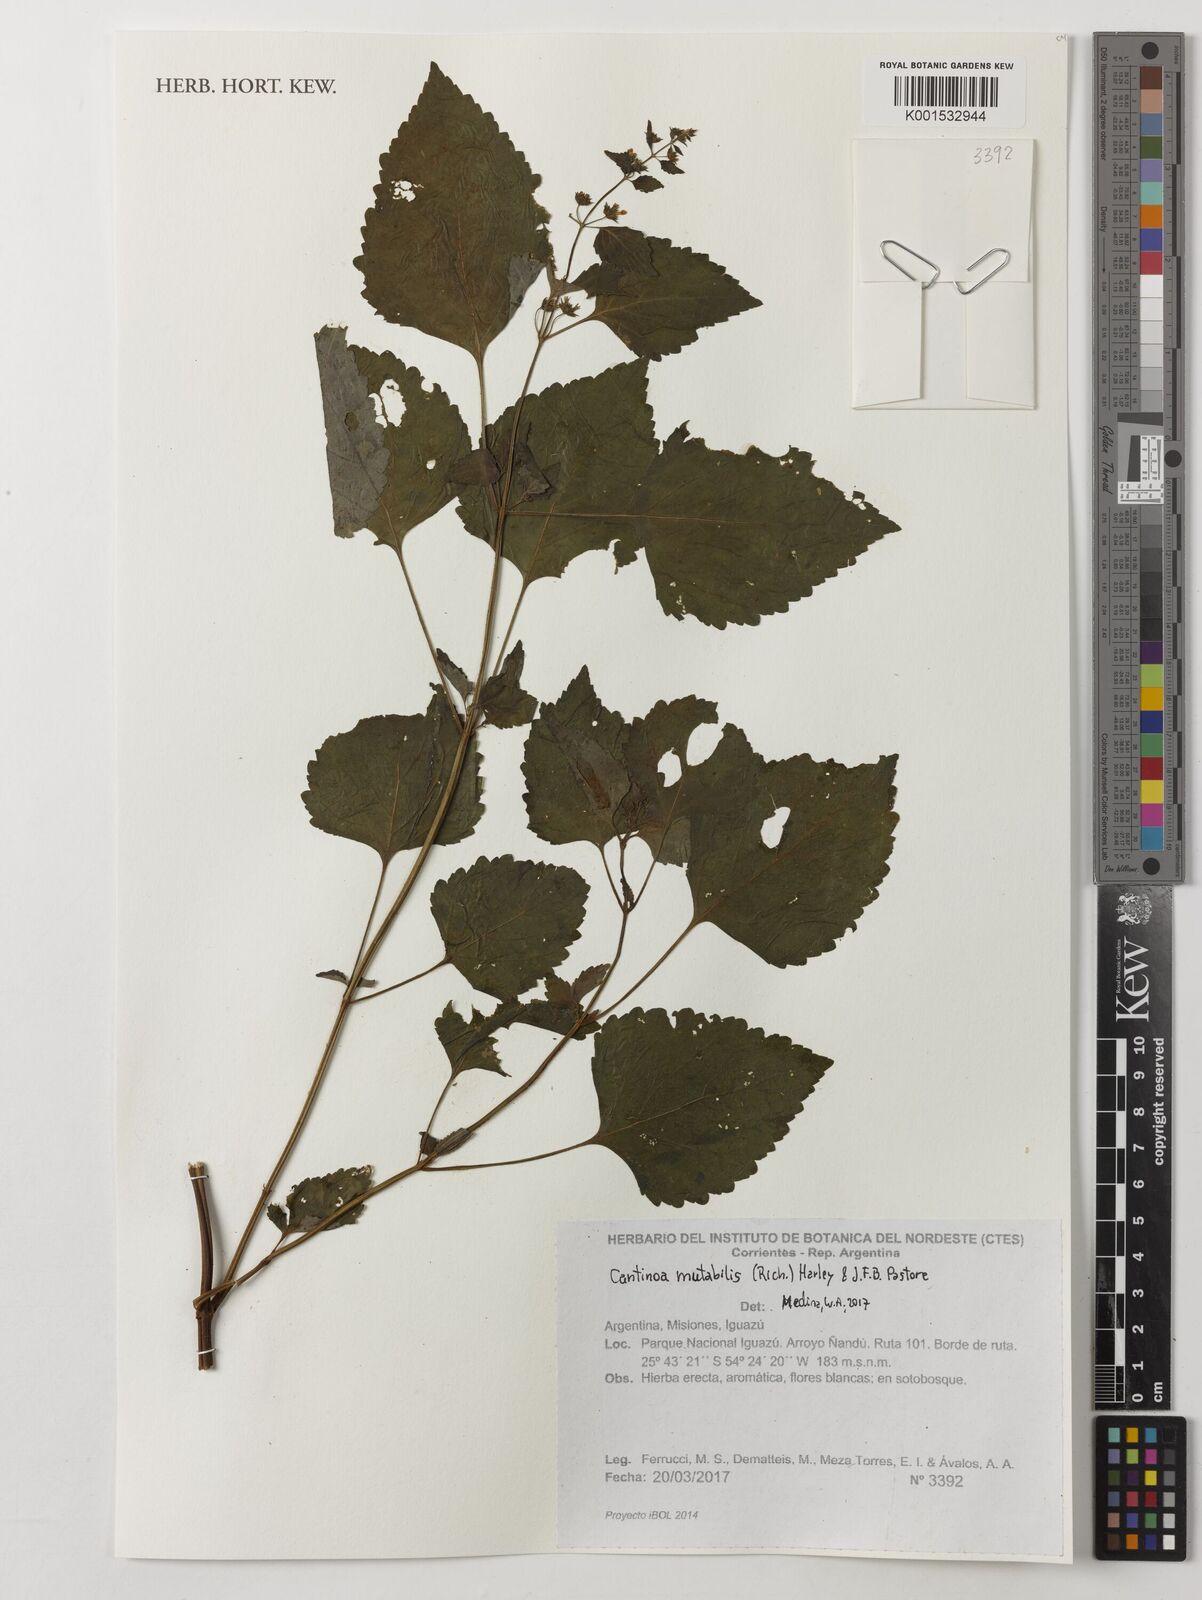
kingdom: Plantae
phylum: Tracheophyta
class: Magnoliopsida
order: Lamiales
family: Lamiaceae
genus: Cantinoa
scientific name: Cantinoa mutabilis
